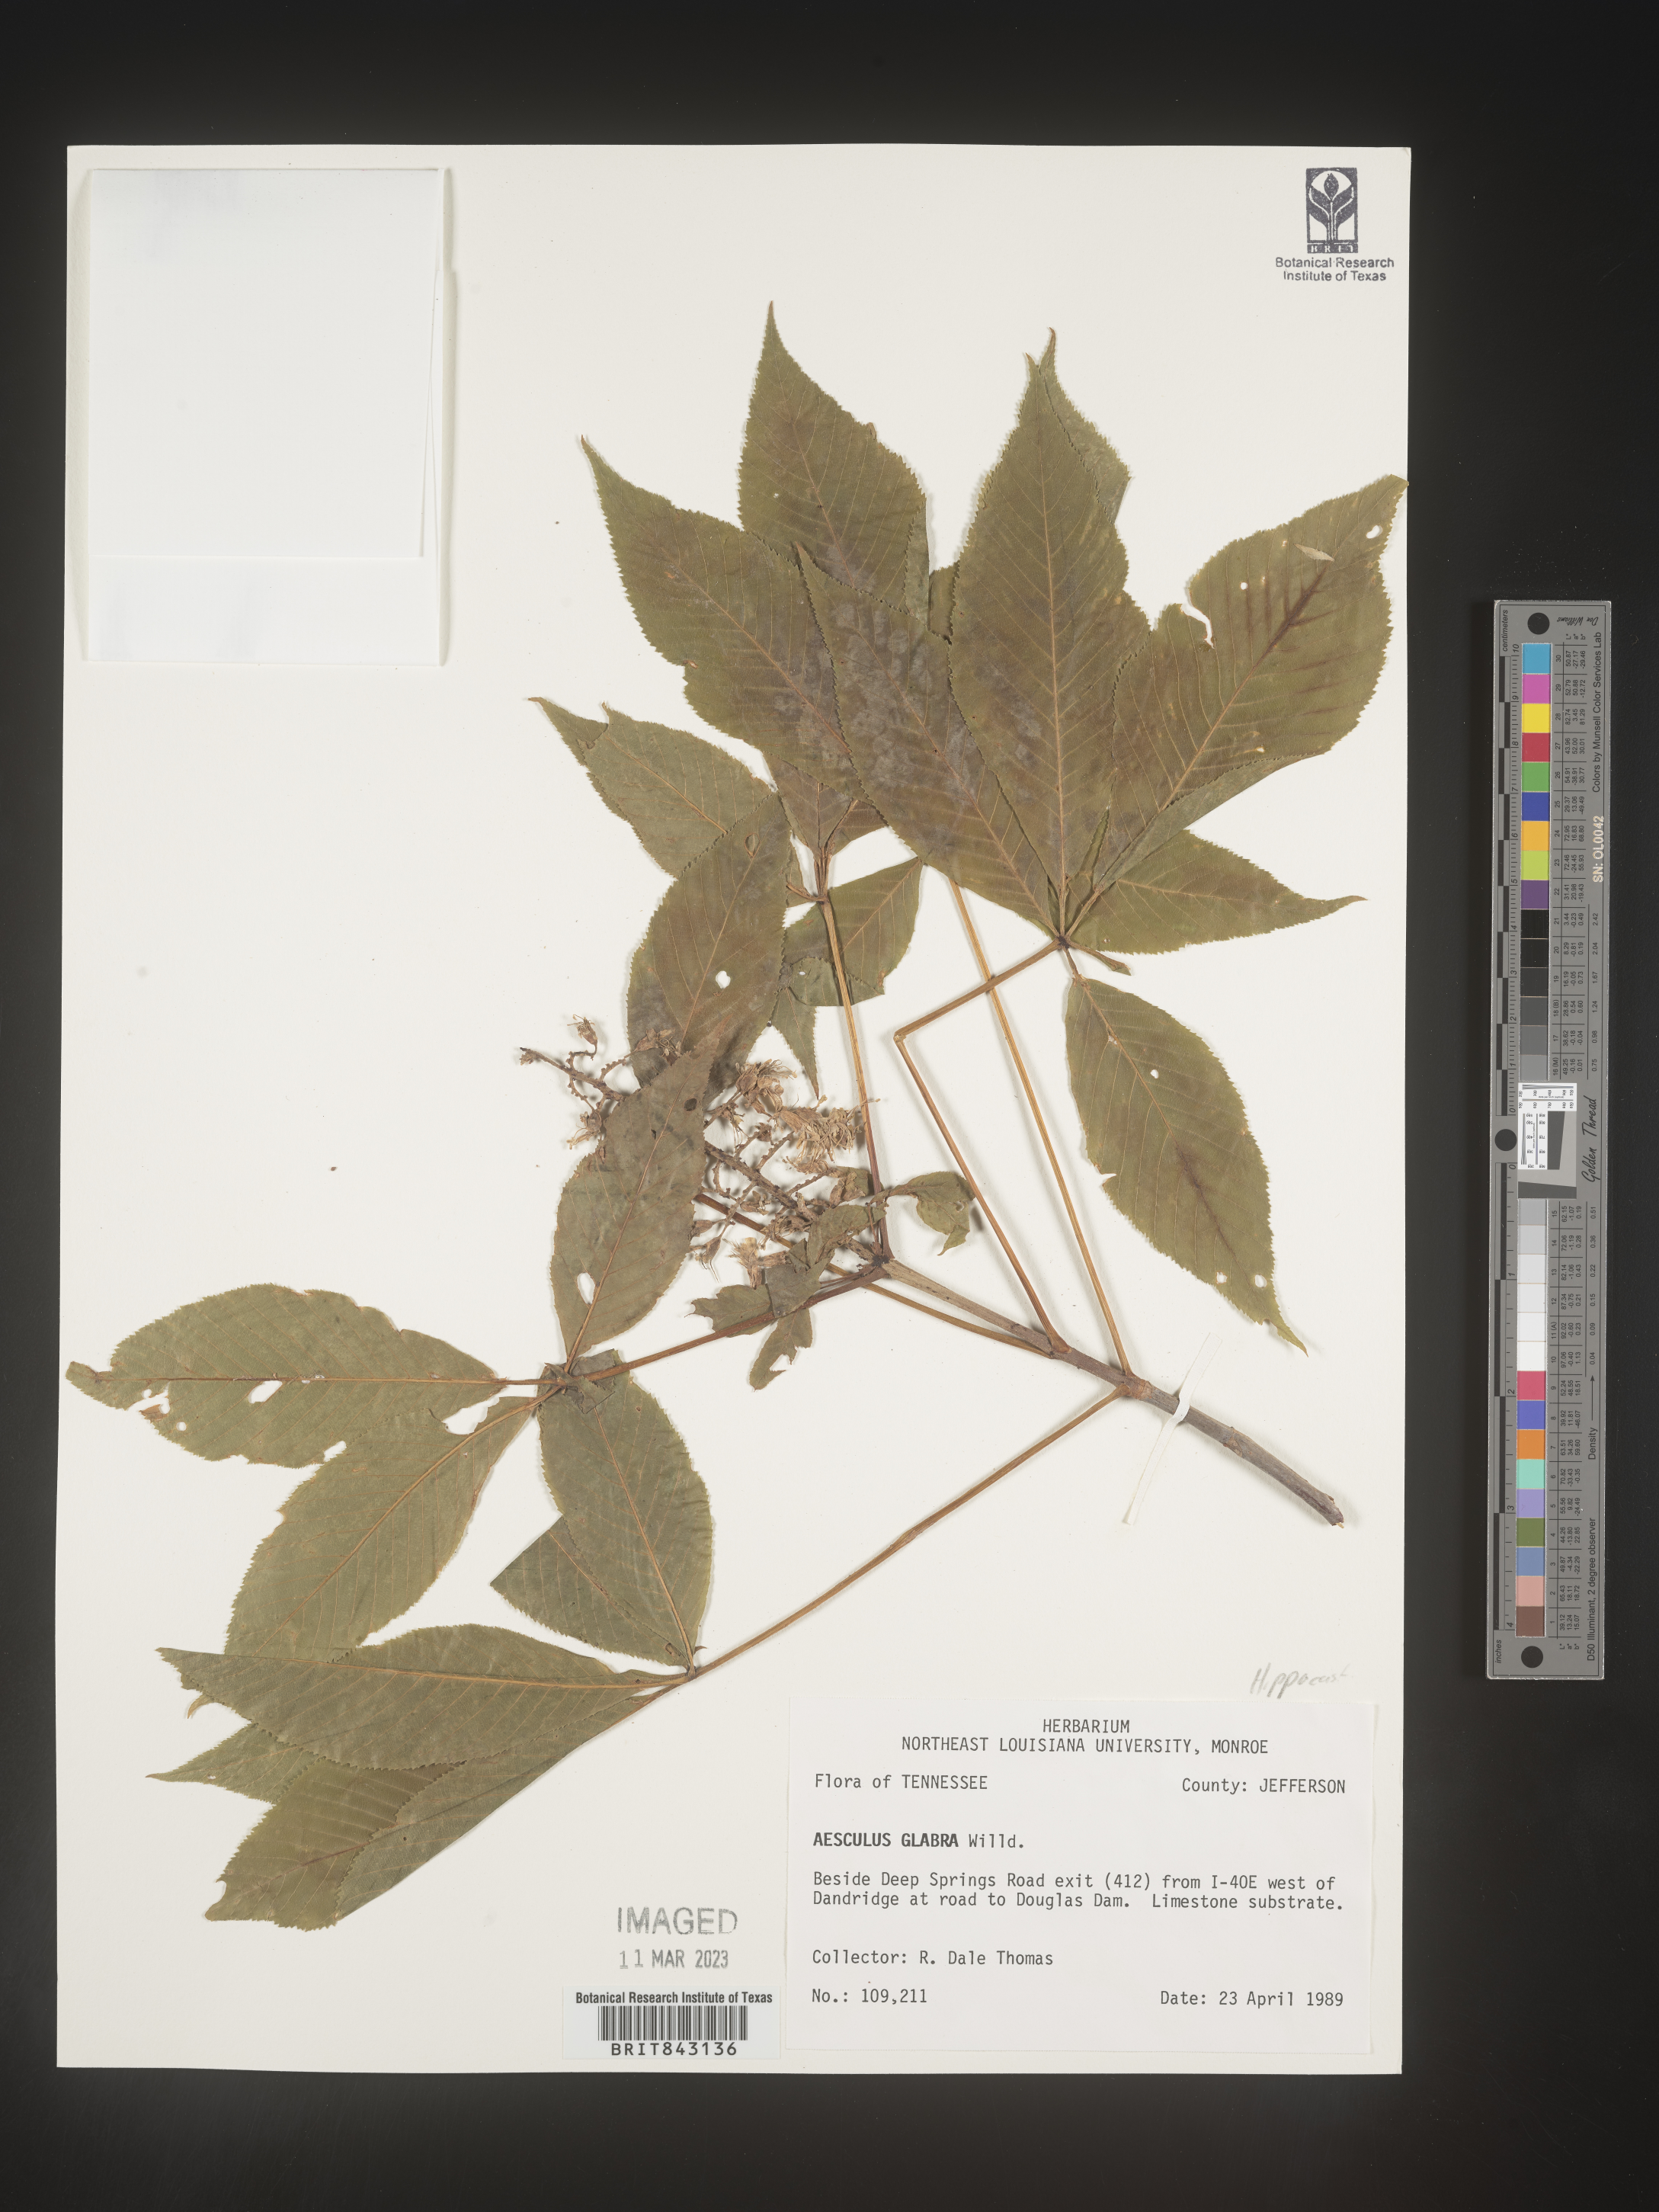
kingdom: Plantae
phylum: Tracheophyta
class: Magnoliopsida
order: Sapindales
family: Sapindaceae
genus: Aesculus
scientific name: Aesculus glabra
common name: Ohio buckeye
